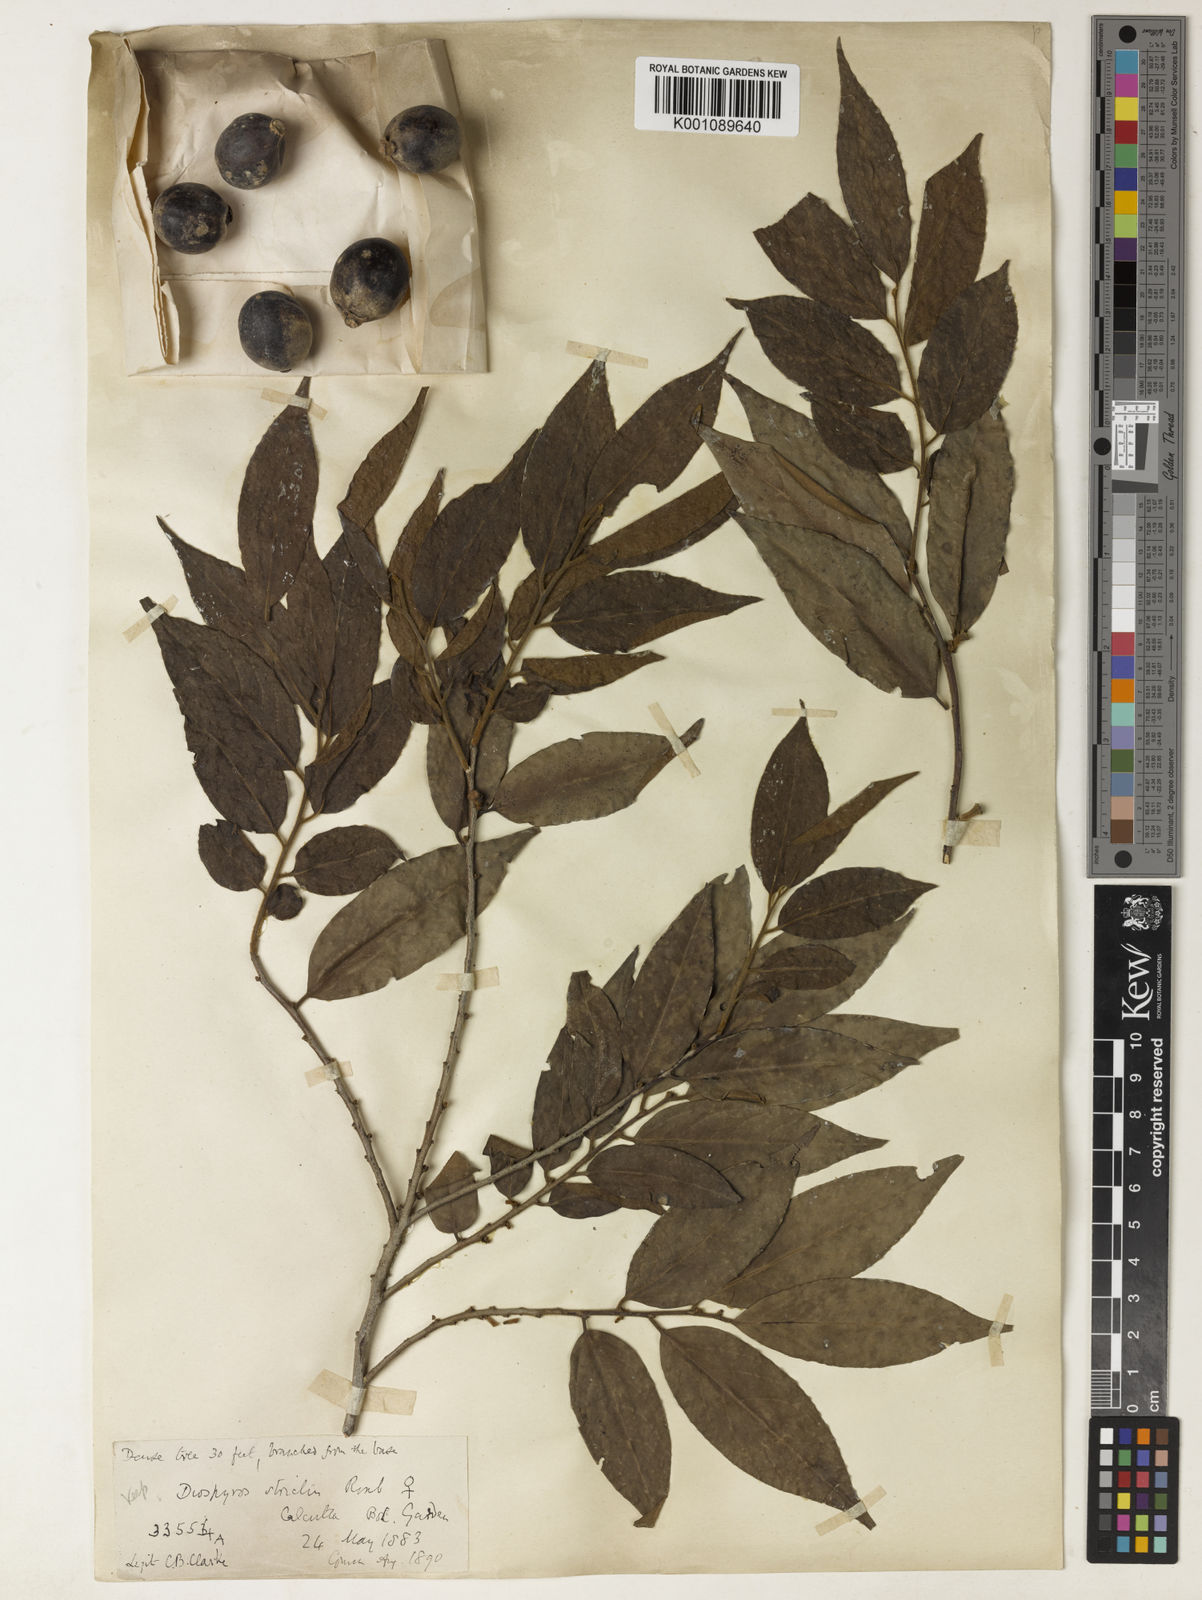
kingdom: Plantae
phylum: Tracheophyta
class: Magnoliopsida
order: Ericales
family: Ebenaceae
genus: Diospyros
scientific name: Diospyros stricta
